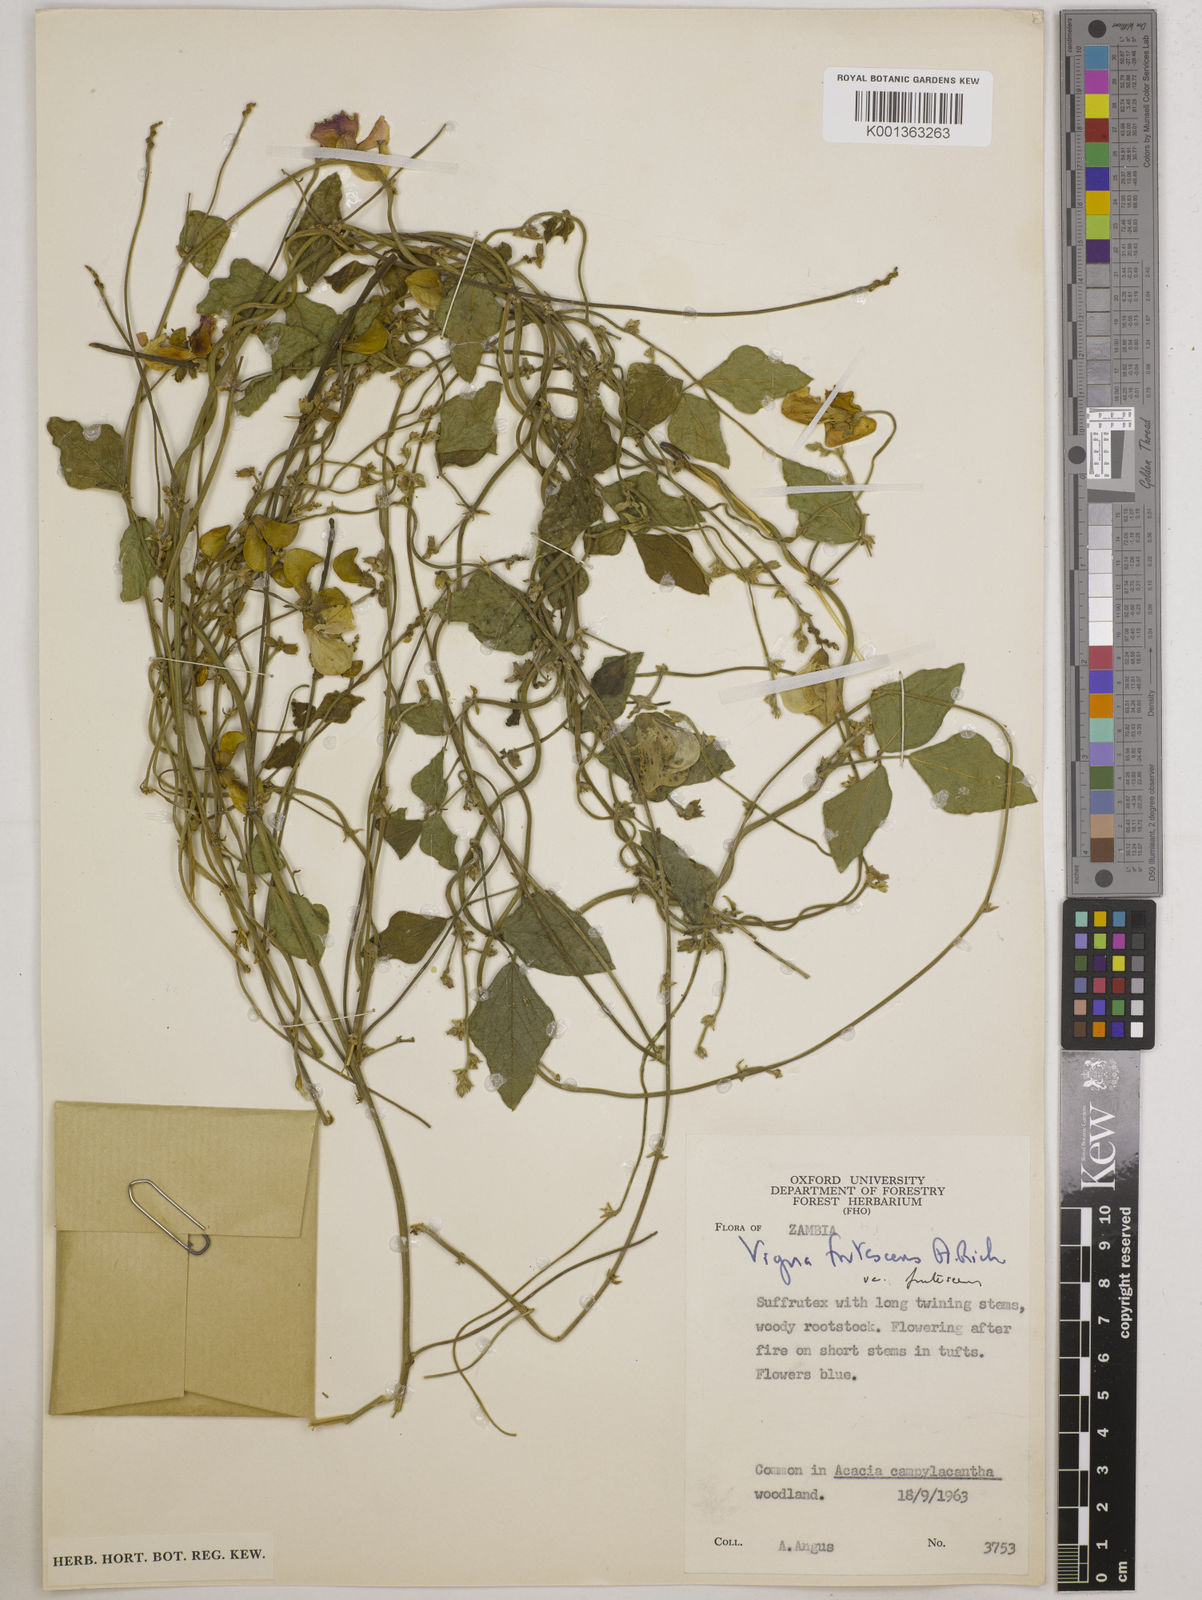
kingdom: Plantae
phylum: Tracheophyta
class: Magnoliopsida
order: Fabales
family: Fabaceae
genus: Vigna
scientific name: Vigna
